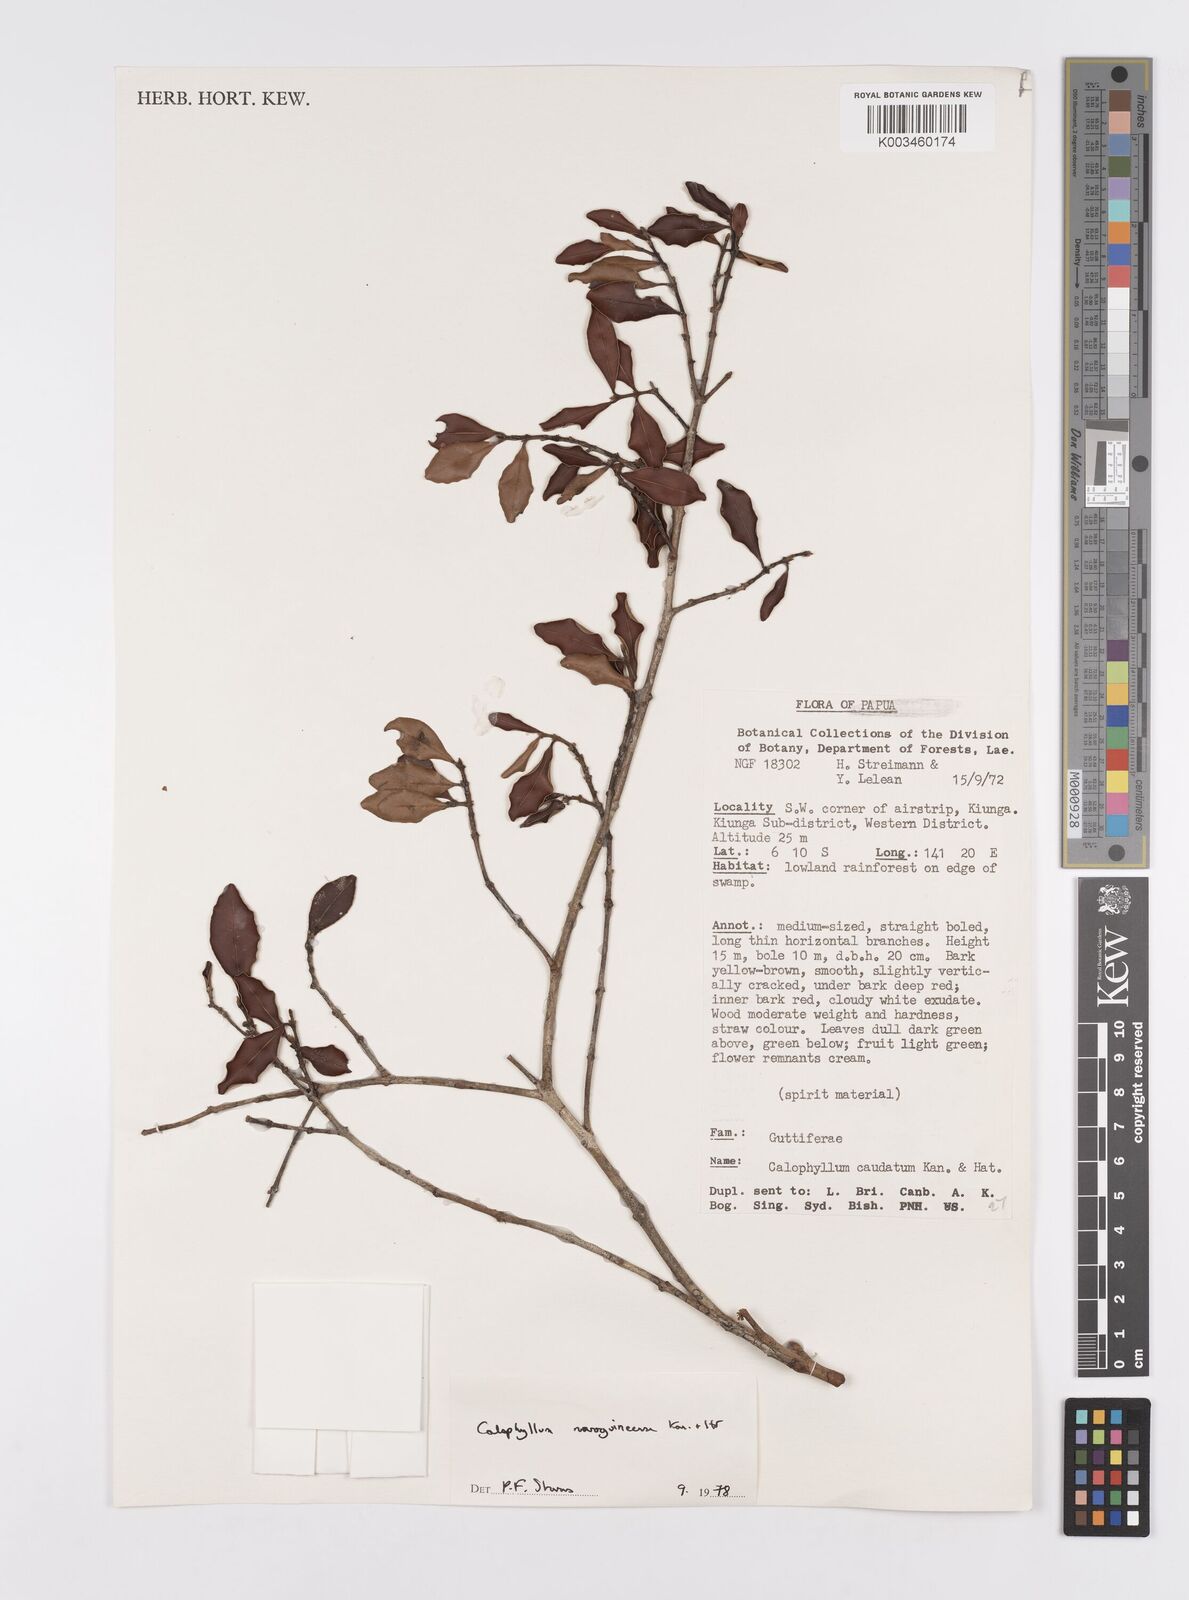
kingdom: Plantae
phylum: Tracheophyta
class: Magnoliopsida
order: Malpighiales
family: Calophyllaceae
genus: Calophyllum
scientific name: Calophyllum novoguineense
